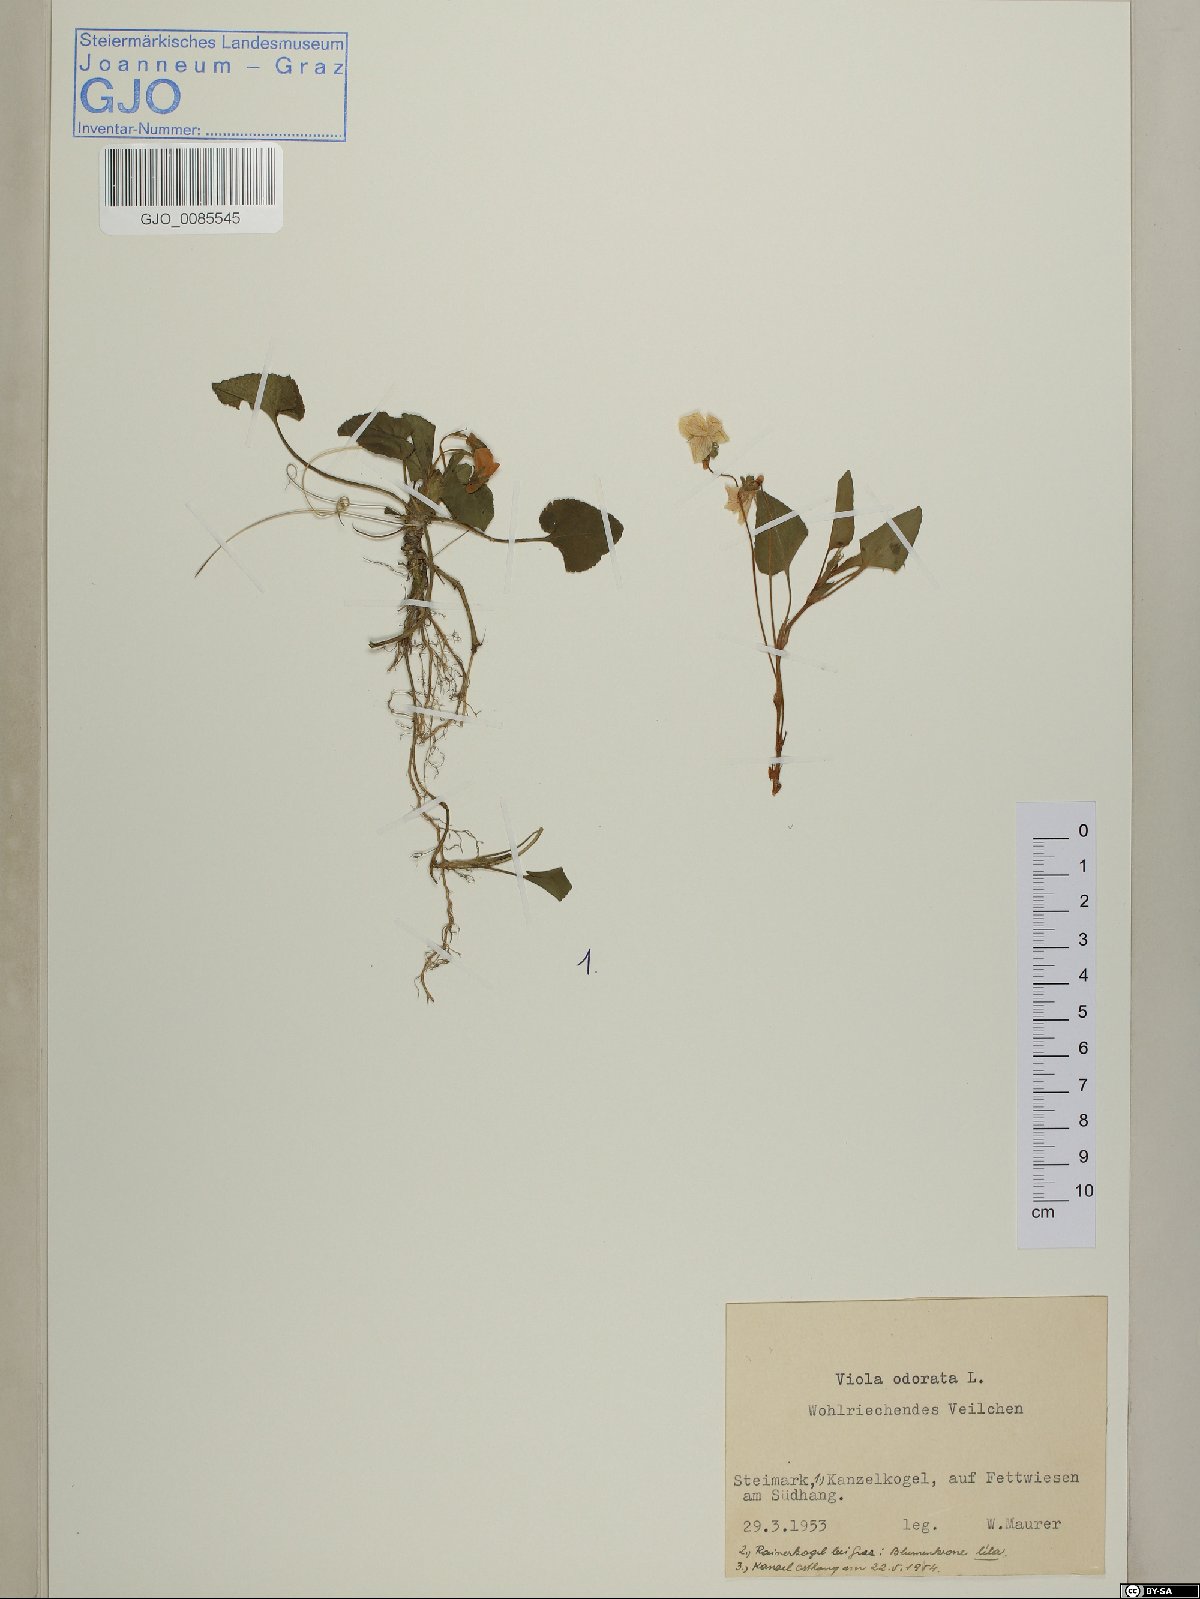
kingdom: Plantae
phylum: Tracheophyta
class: Magnoliopsida
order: Malpighiales
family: Violaceae
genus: Viola
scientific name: Viola odorata
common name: Sweet violet
